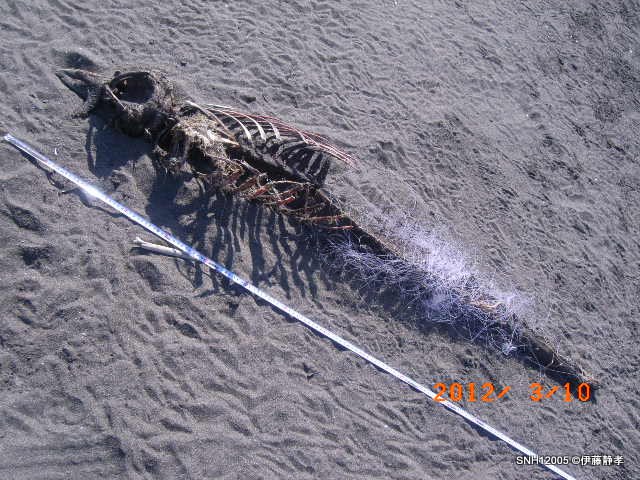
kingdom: Animalia
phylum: Chordata
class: Mammalia
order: Cetacea
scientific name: Cetacea
